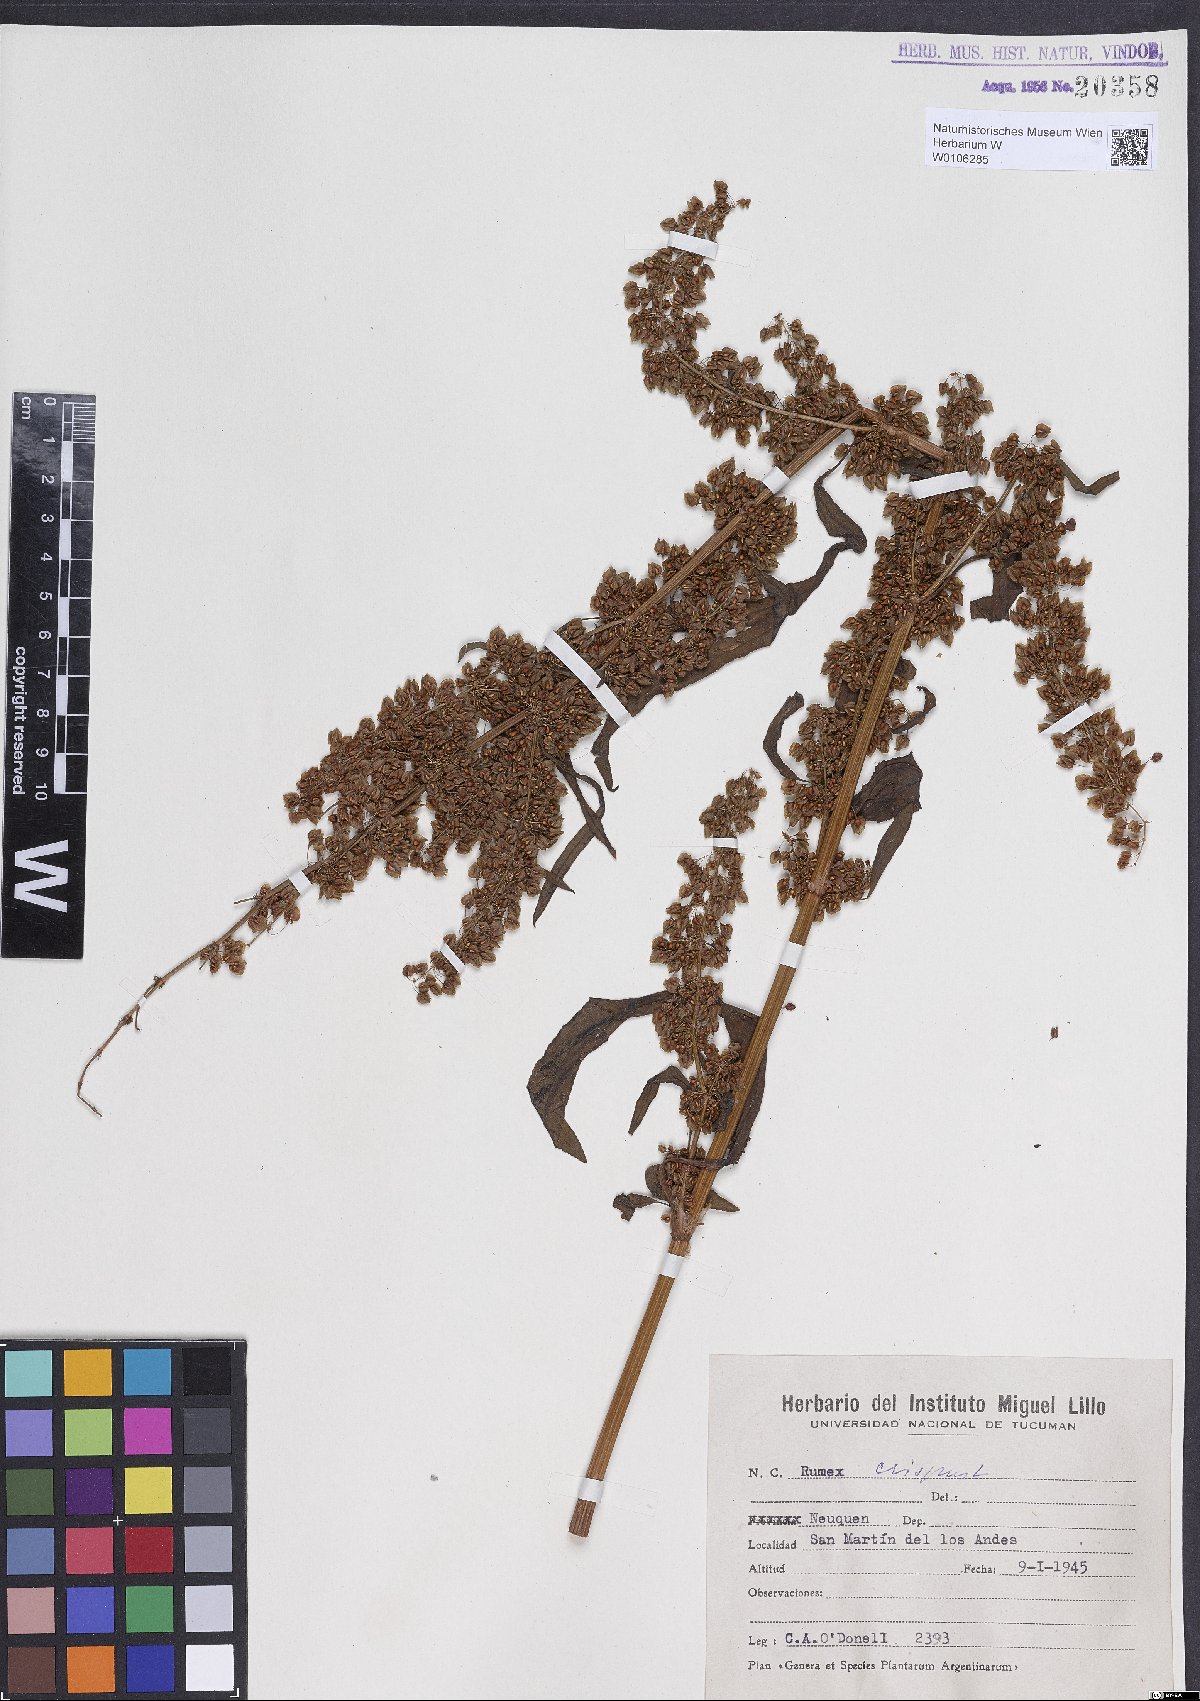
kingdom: Plantae
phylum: Tracheophyta
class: Magnoliopsida
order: Caryophyllales
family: Polygonaceae
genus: Rumex
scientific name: Rumex crispus
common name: Curled dock
